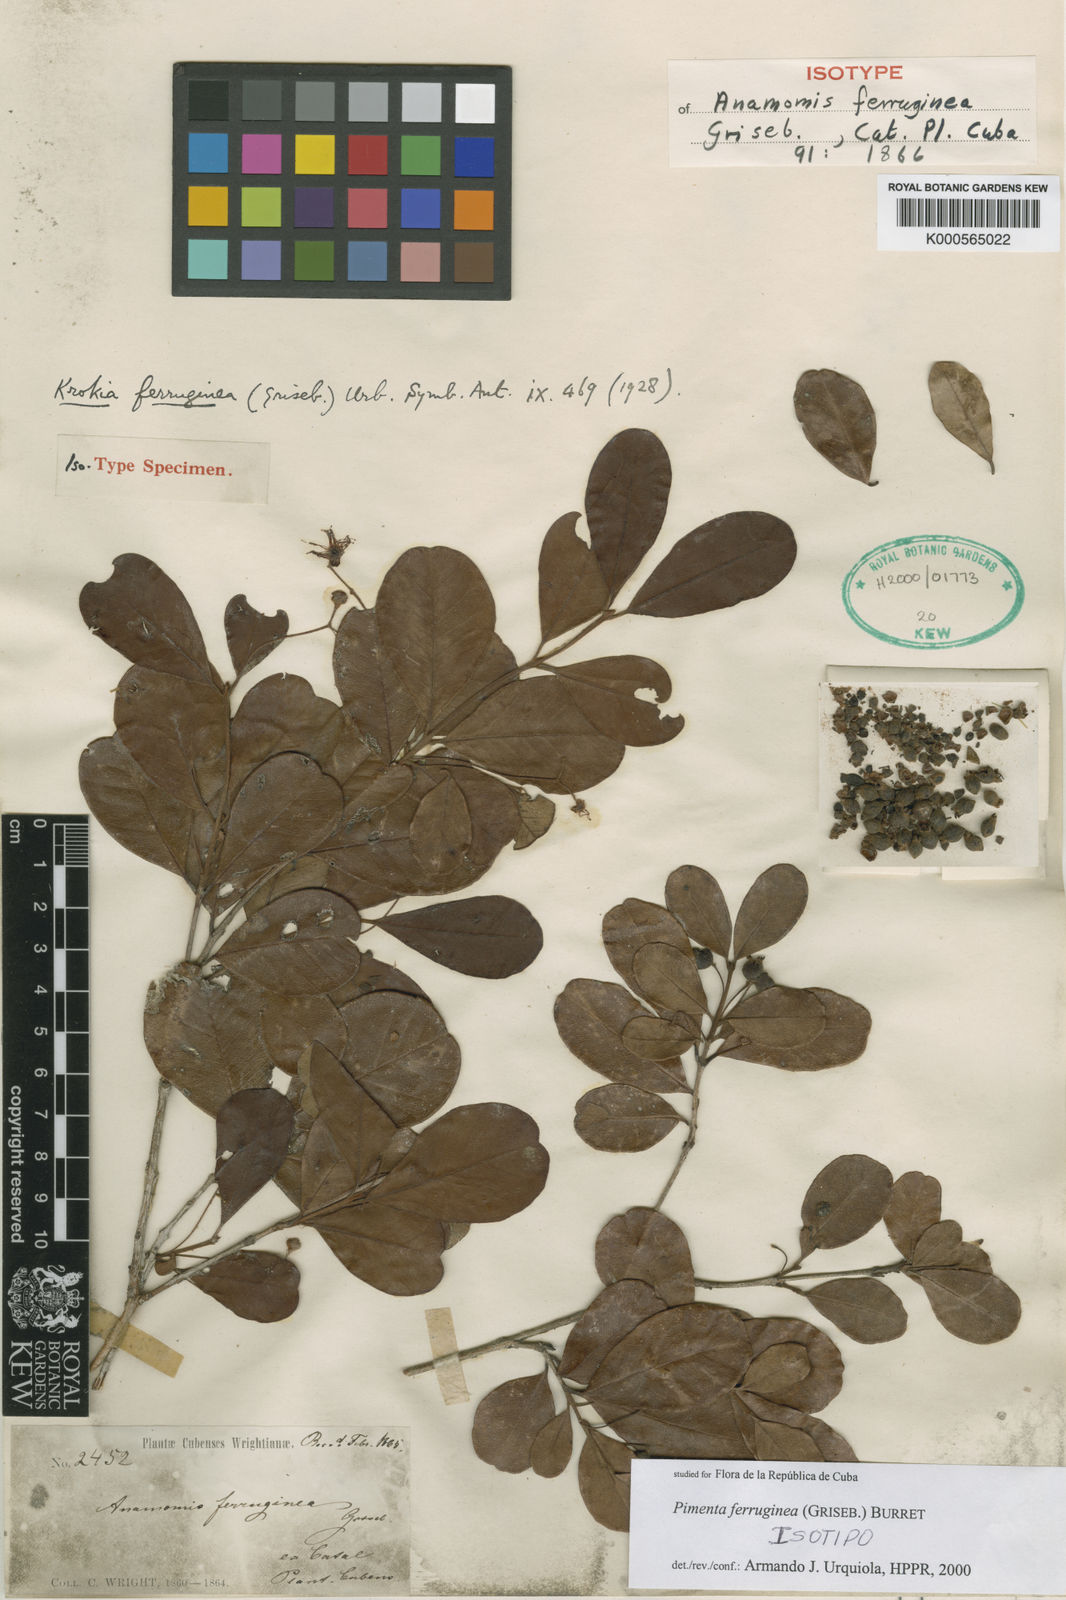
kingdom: Plantae
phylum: Tracheophyta
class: Magnoliopsida
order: Myrtales
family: Myrtaceae
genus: Pimenta
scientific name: Pimenta ferruginea
